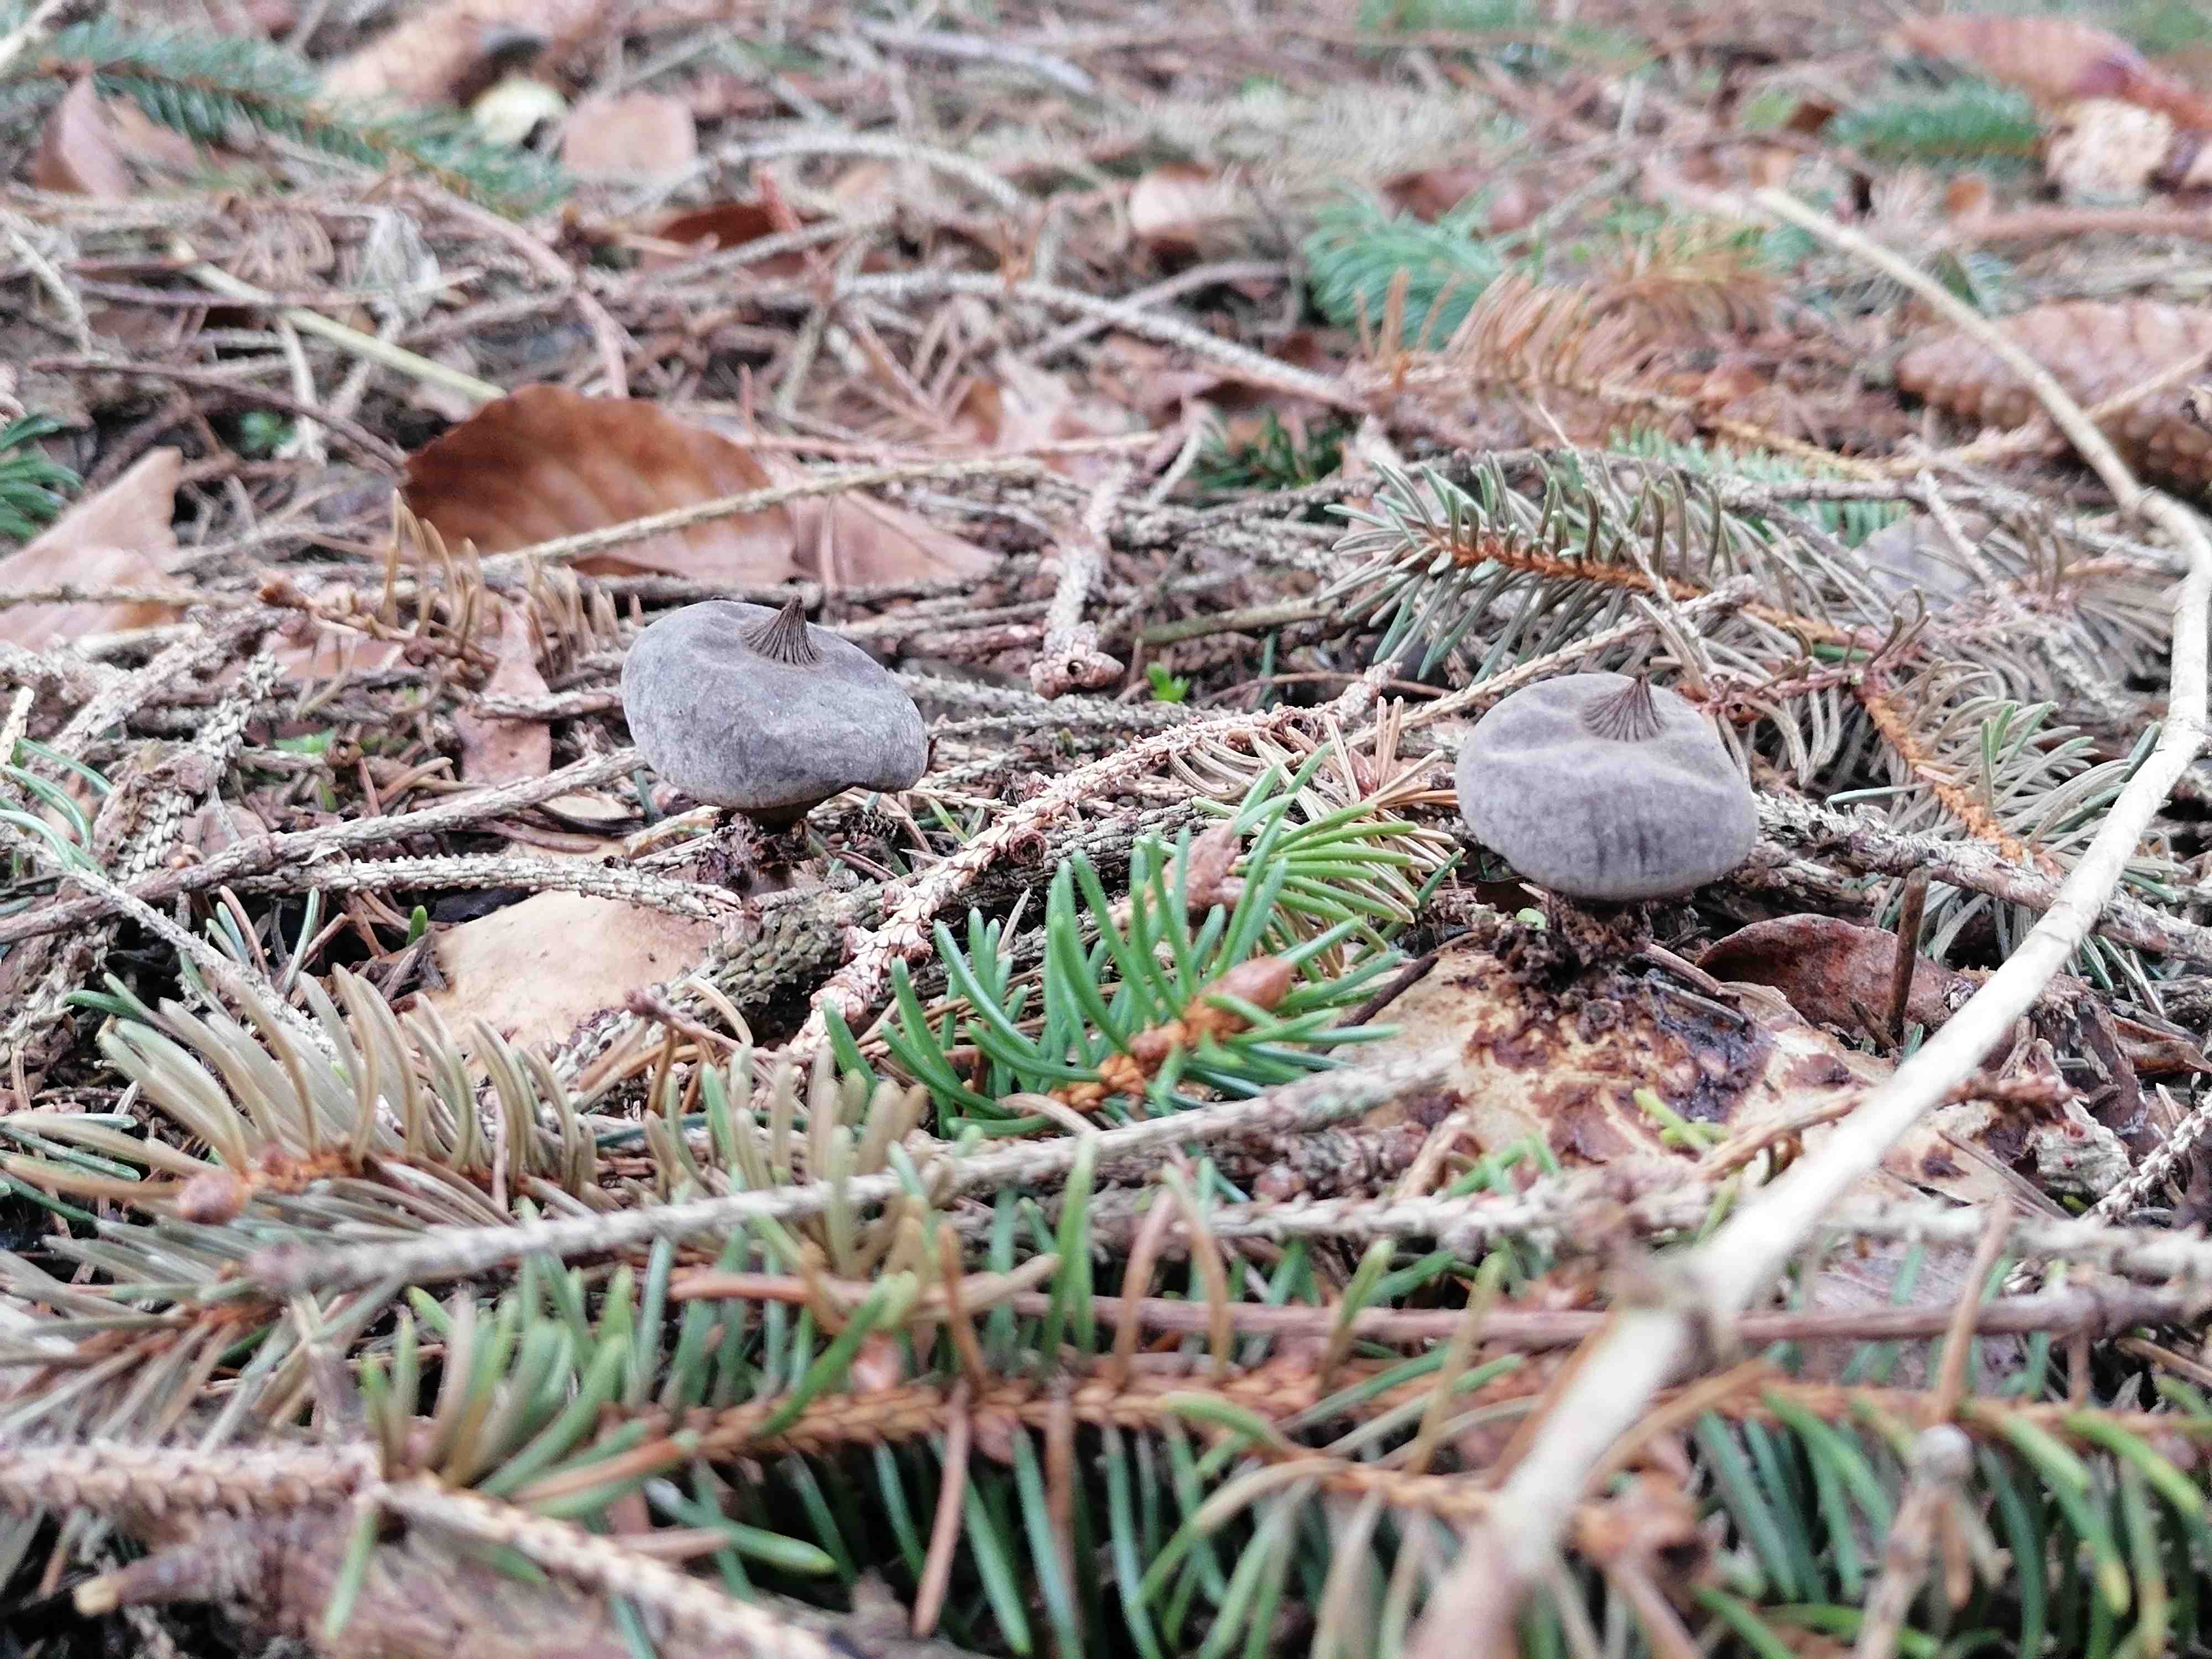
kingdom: Fungi
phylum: Basidiomycota
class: Agaricomycetes
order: Geastrales
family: Geastraceae
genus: Geastrum
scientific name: Geastrum pectinatum
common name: stilket stjernebold
